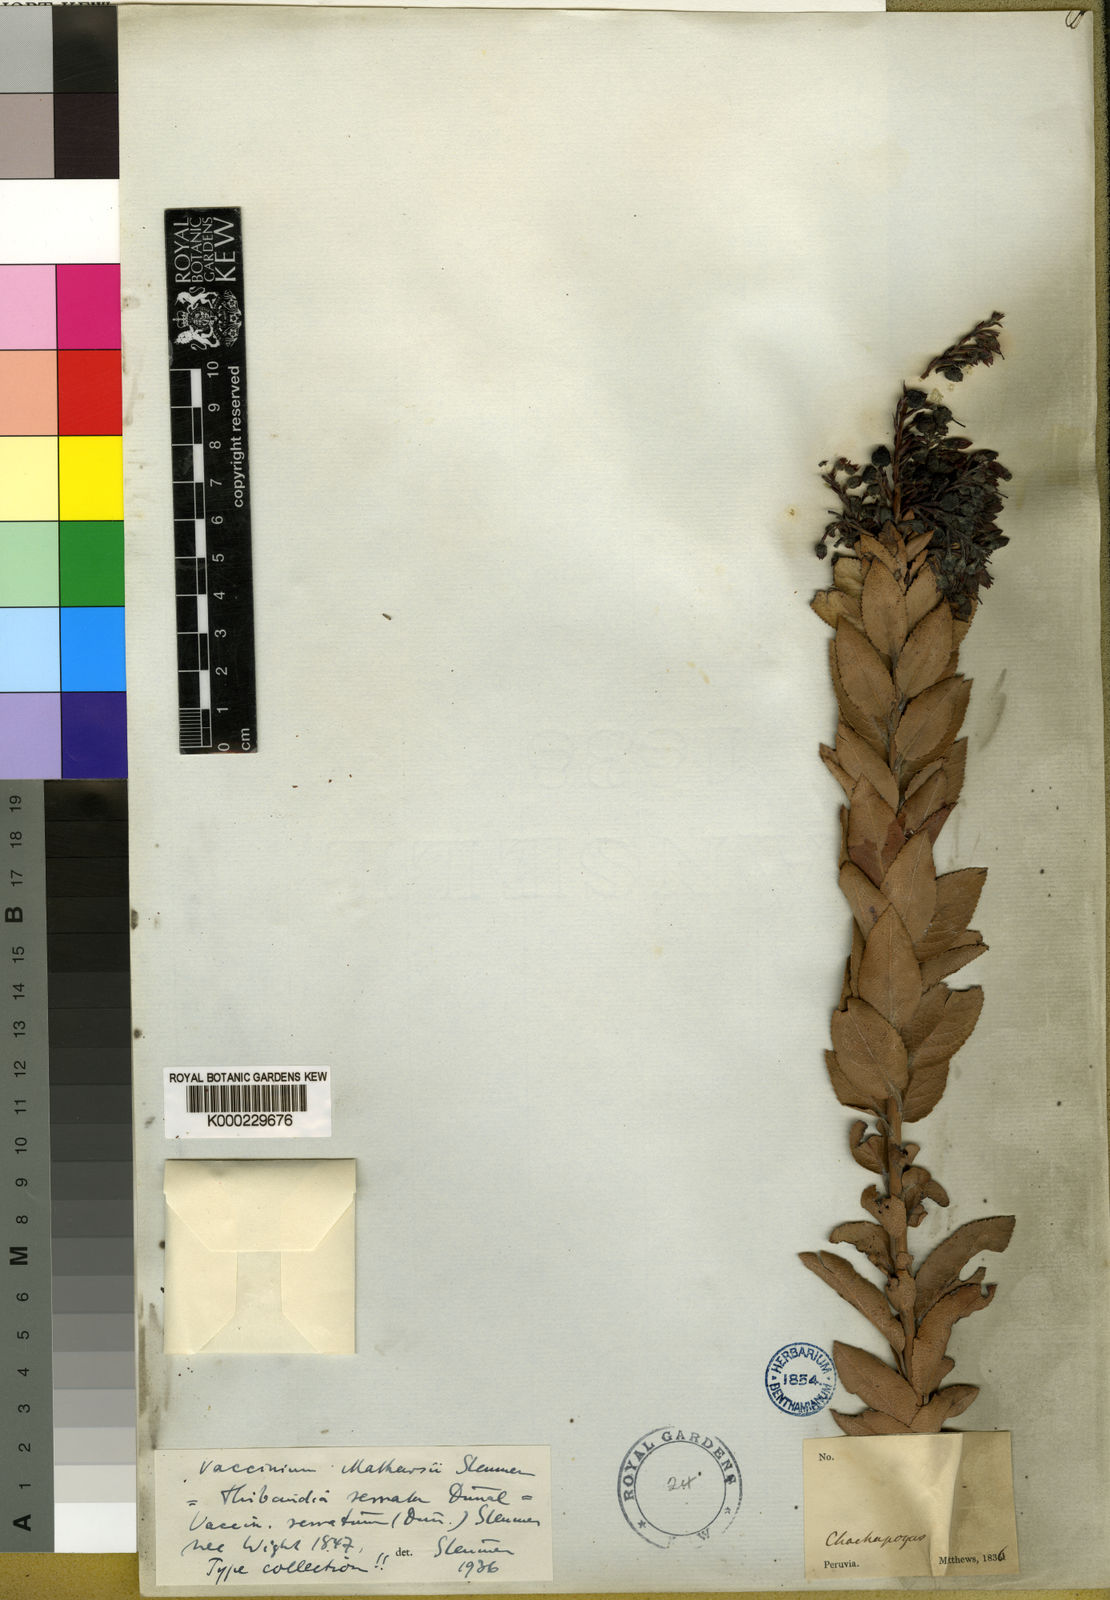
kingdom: Plantae
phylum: Tracheophyta
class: Magnoliopsida
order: Ericales
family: Ericaceae
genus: Vaccinium
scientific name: Vaccinium mathewsii
